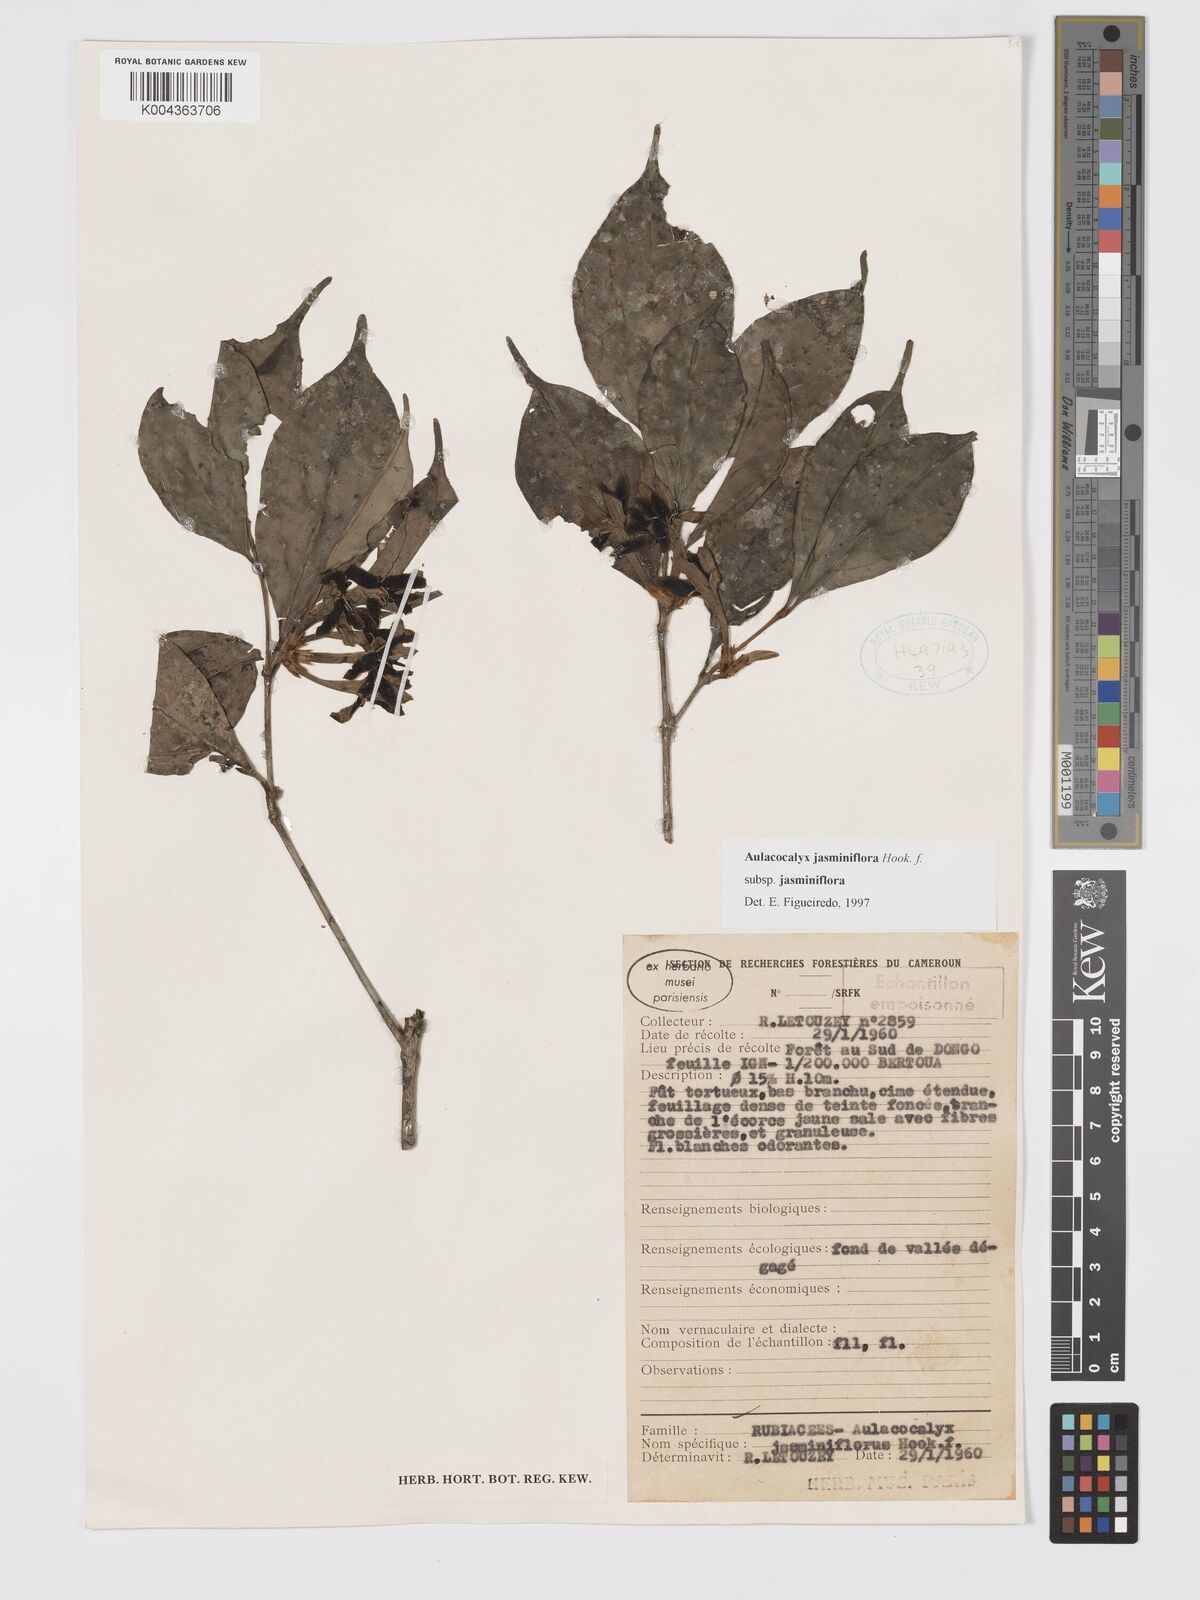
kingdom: Plantae
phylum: Tracheophyta
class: Magnoliopsida
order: Gentianales
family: Rubiaceae
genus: Aulacocalyx
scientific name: Aulacocalyx jasminiflora
